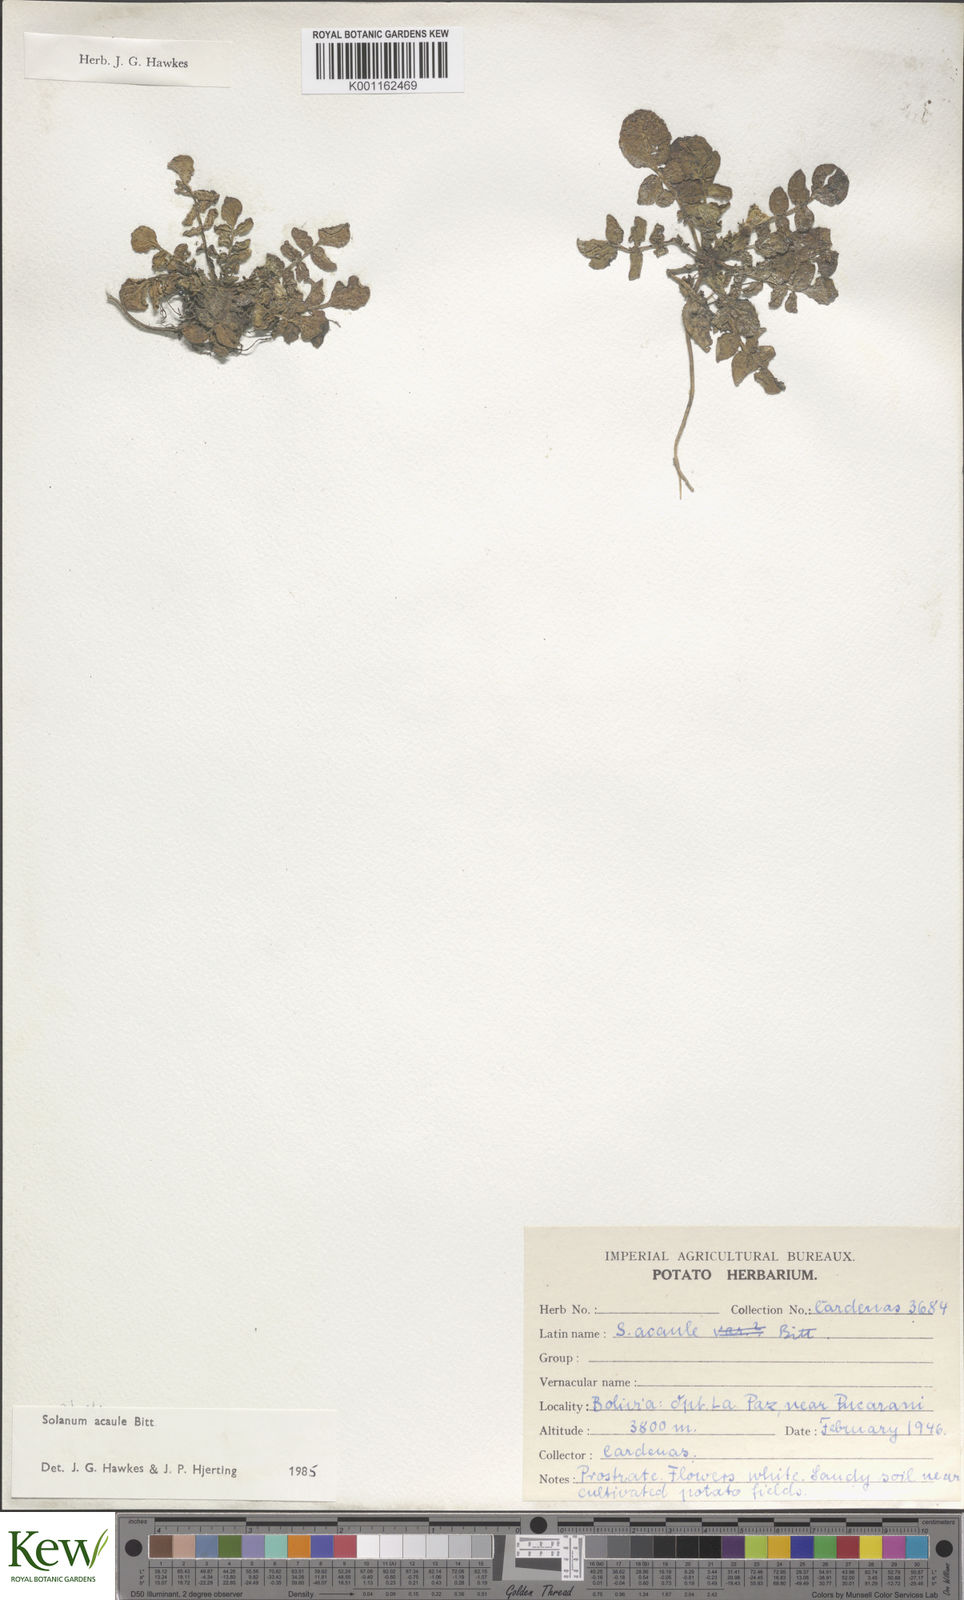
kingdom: Plantae
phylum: Tracheophyta
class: Magnoliopsida
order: Solanales
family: Solanaceae
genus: Solanum
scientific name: Solanum acaule
